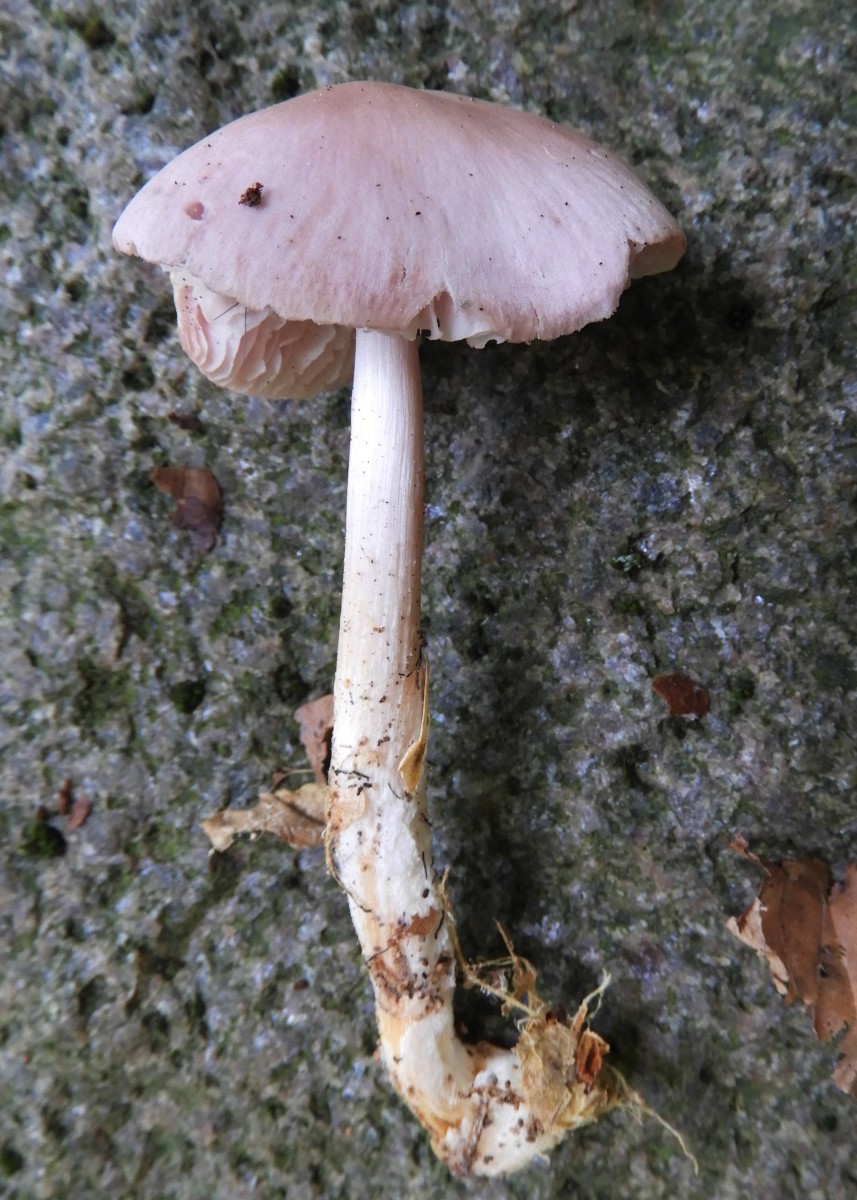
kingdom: Fungi
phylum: Basidiomycota
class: Agaricomycetes
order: Agaricales
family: Mycenaceae
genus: Mycena
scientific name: Mycena rosea
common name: rosa huesvamp
